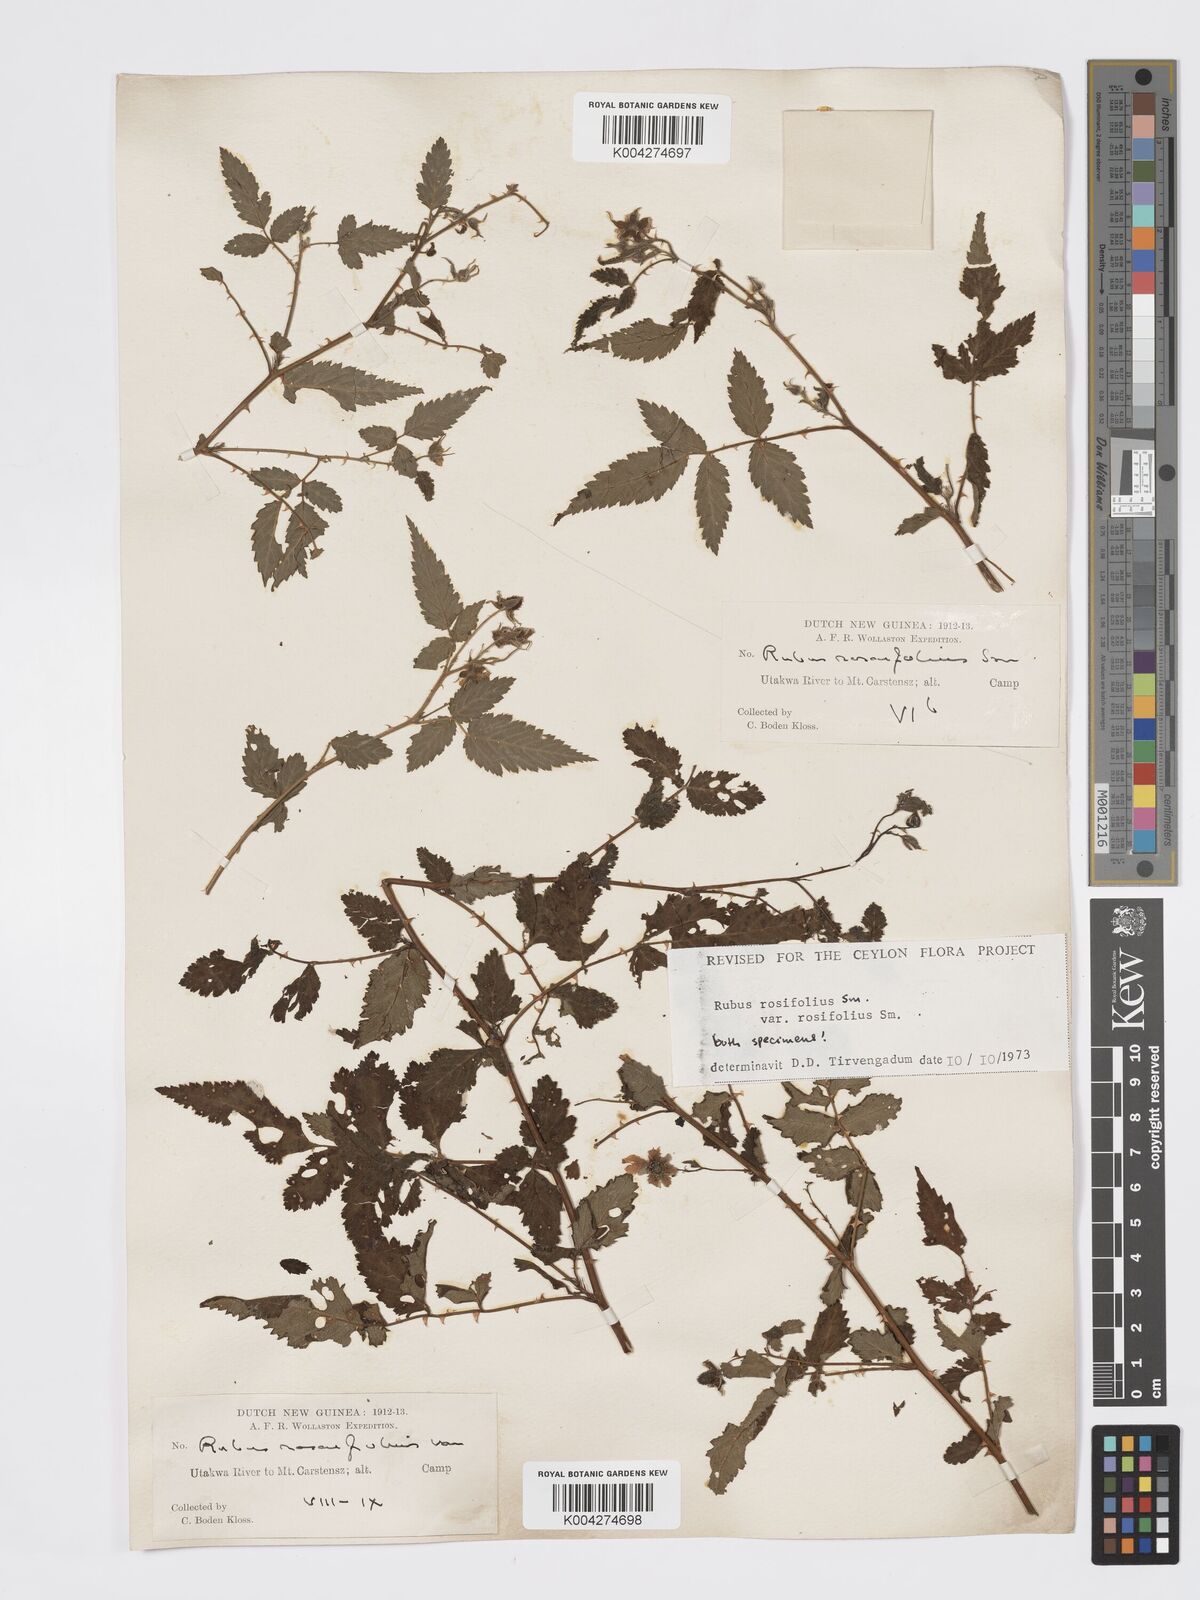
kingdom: Plantae
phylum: Tracheophyta
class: Magnoliopsida
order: Rosales
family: Rosaceae
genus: Rubus
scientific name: Rubus
